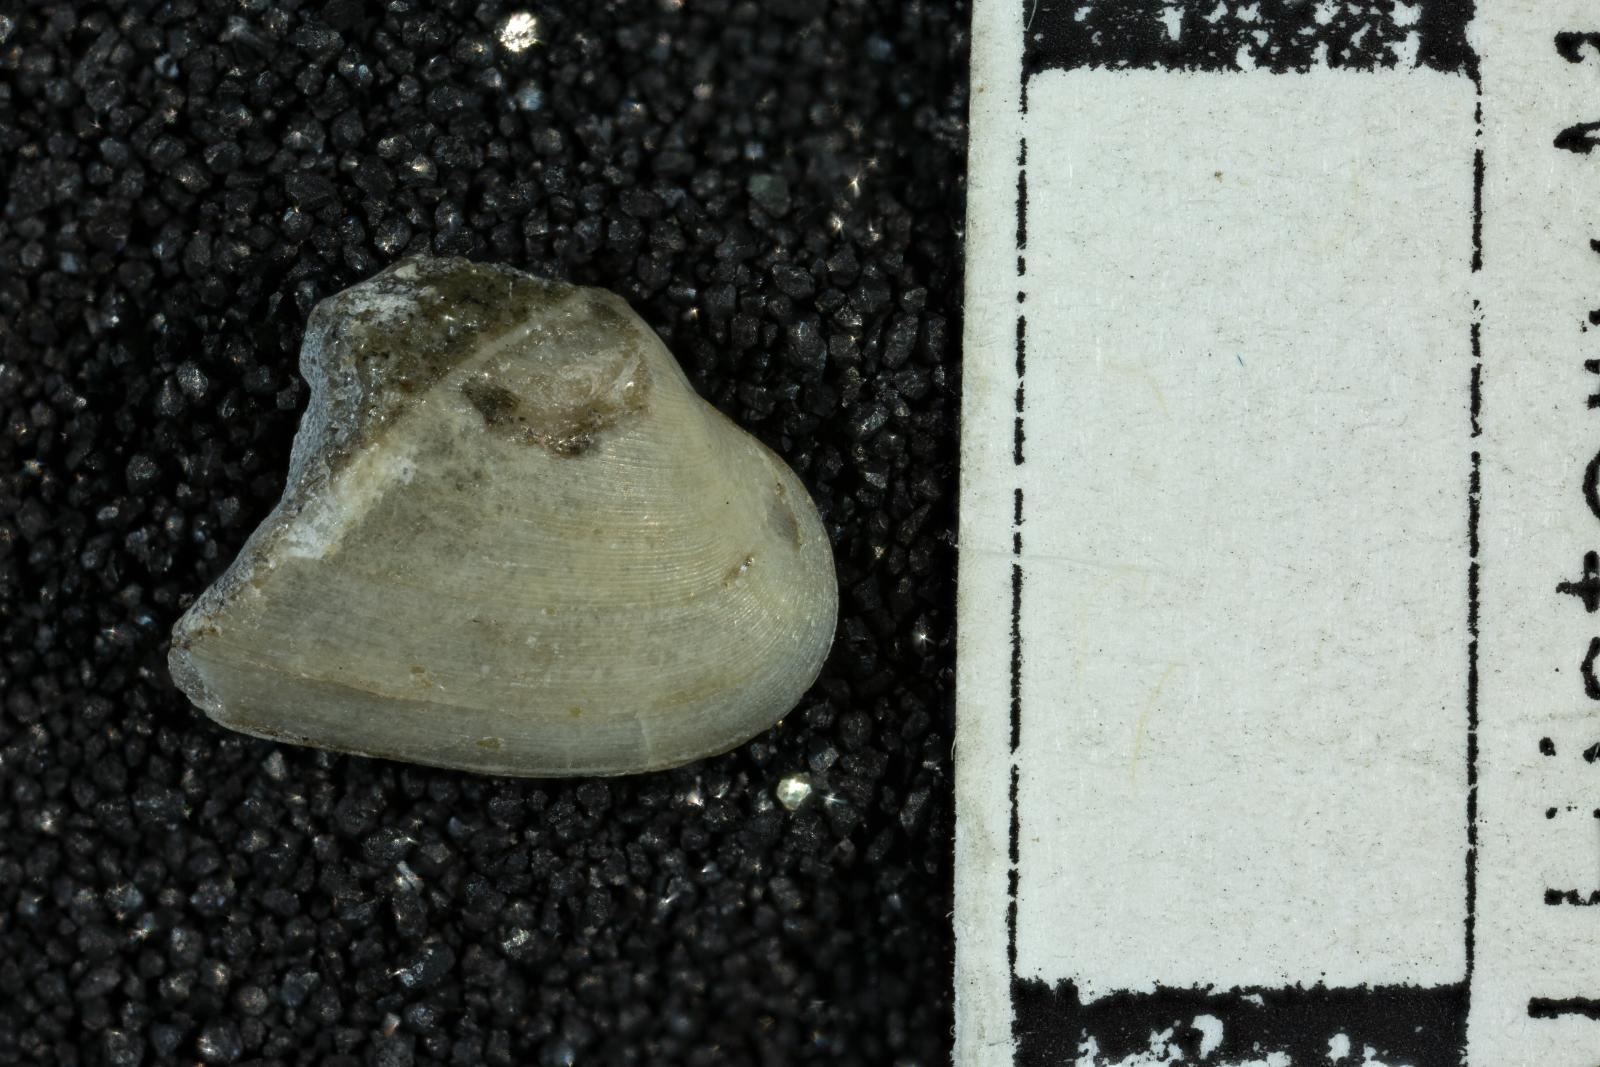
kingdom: Animalia
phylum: Mollusca
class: Bivalvia
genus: Phygraea
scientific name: Phygraea
